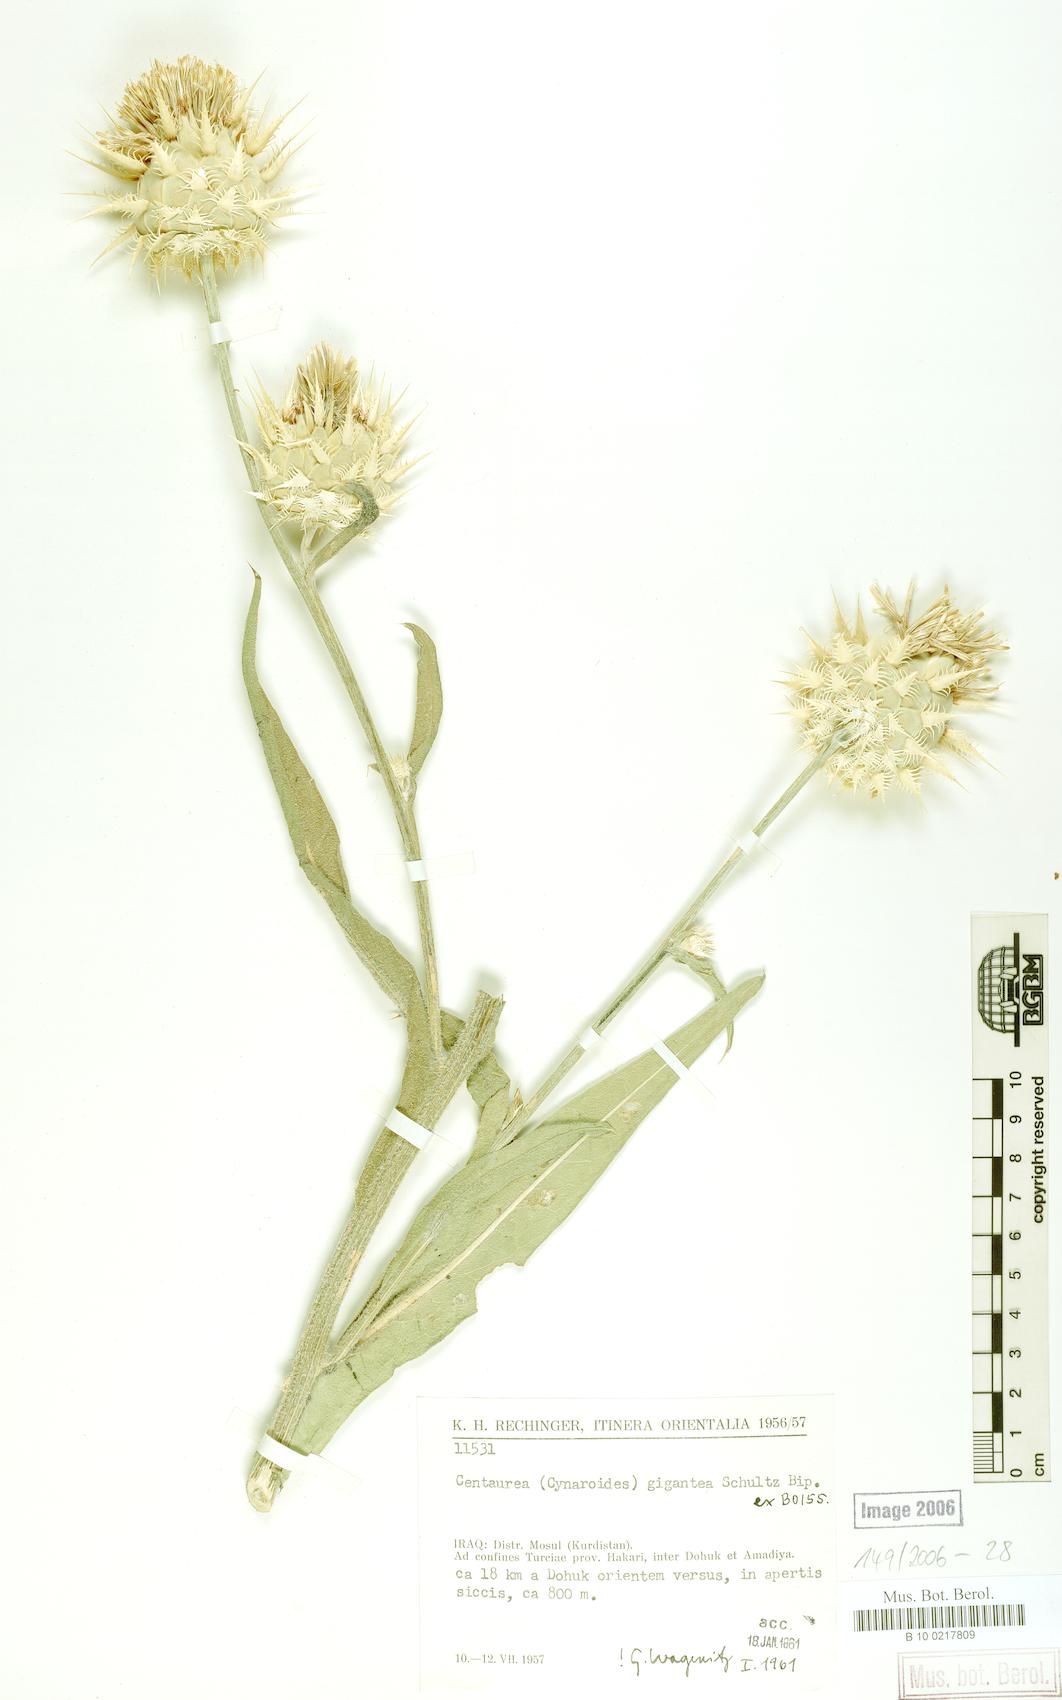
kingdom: Plantae
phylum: Tracheophyta
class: Magnoliopsida
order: Asterales
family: Asteraceae
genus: Centaurea
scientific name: Centaurea gigantea
